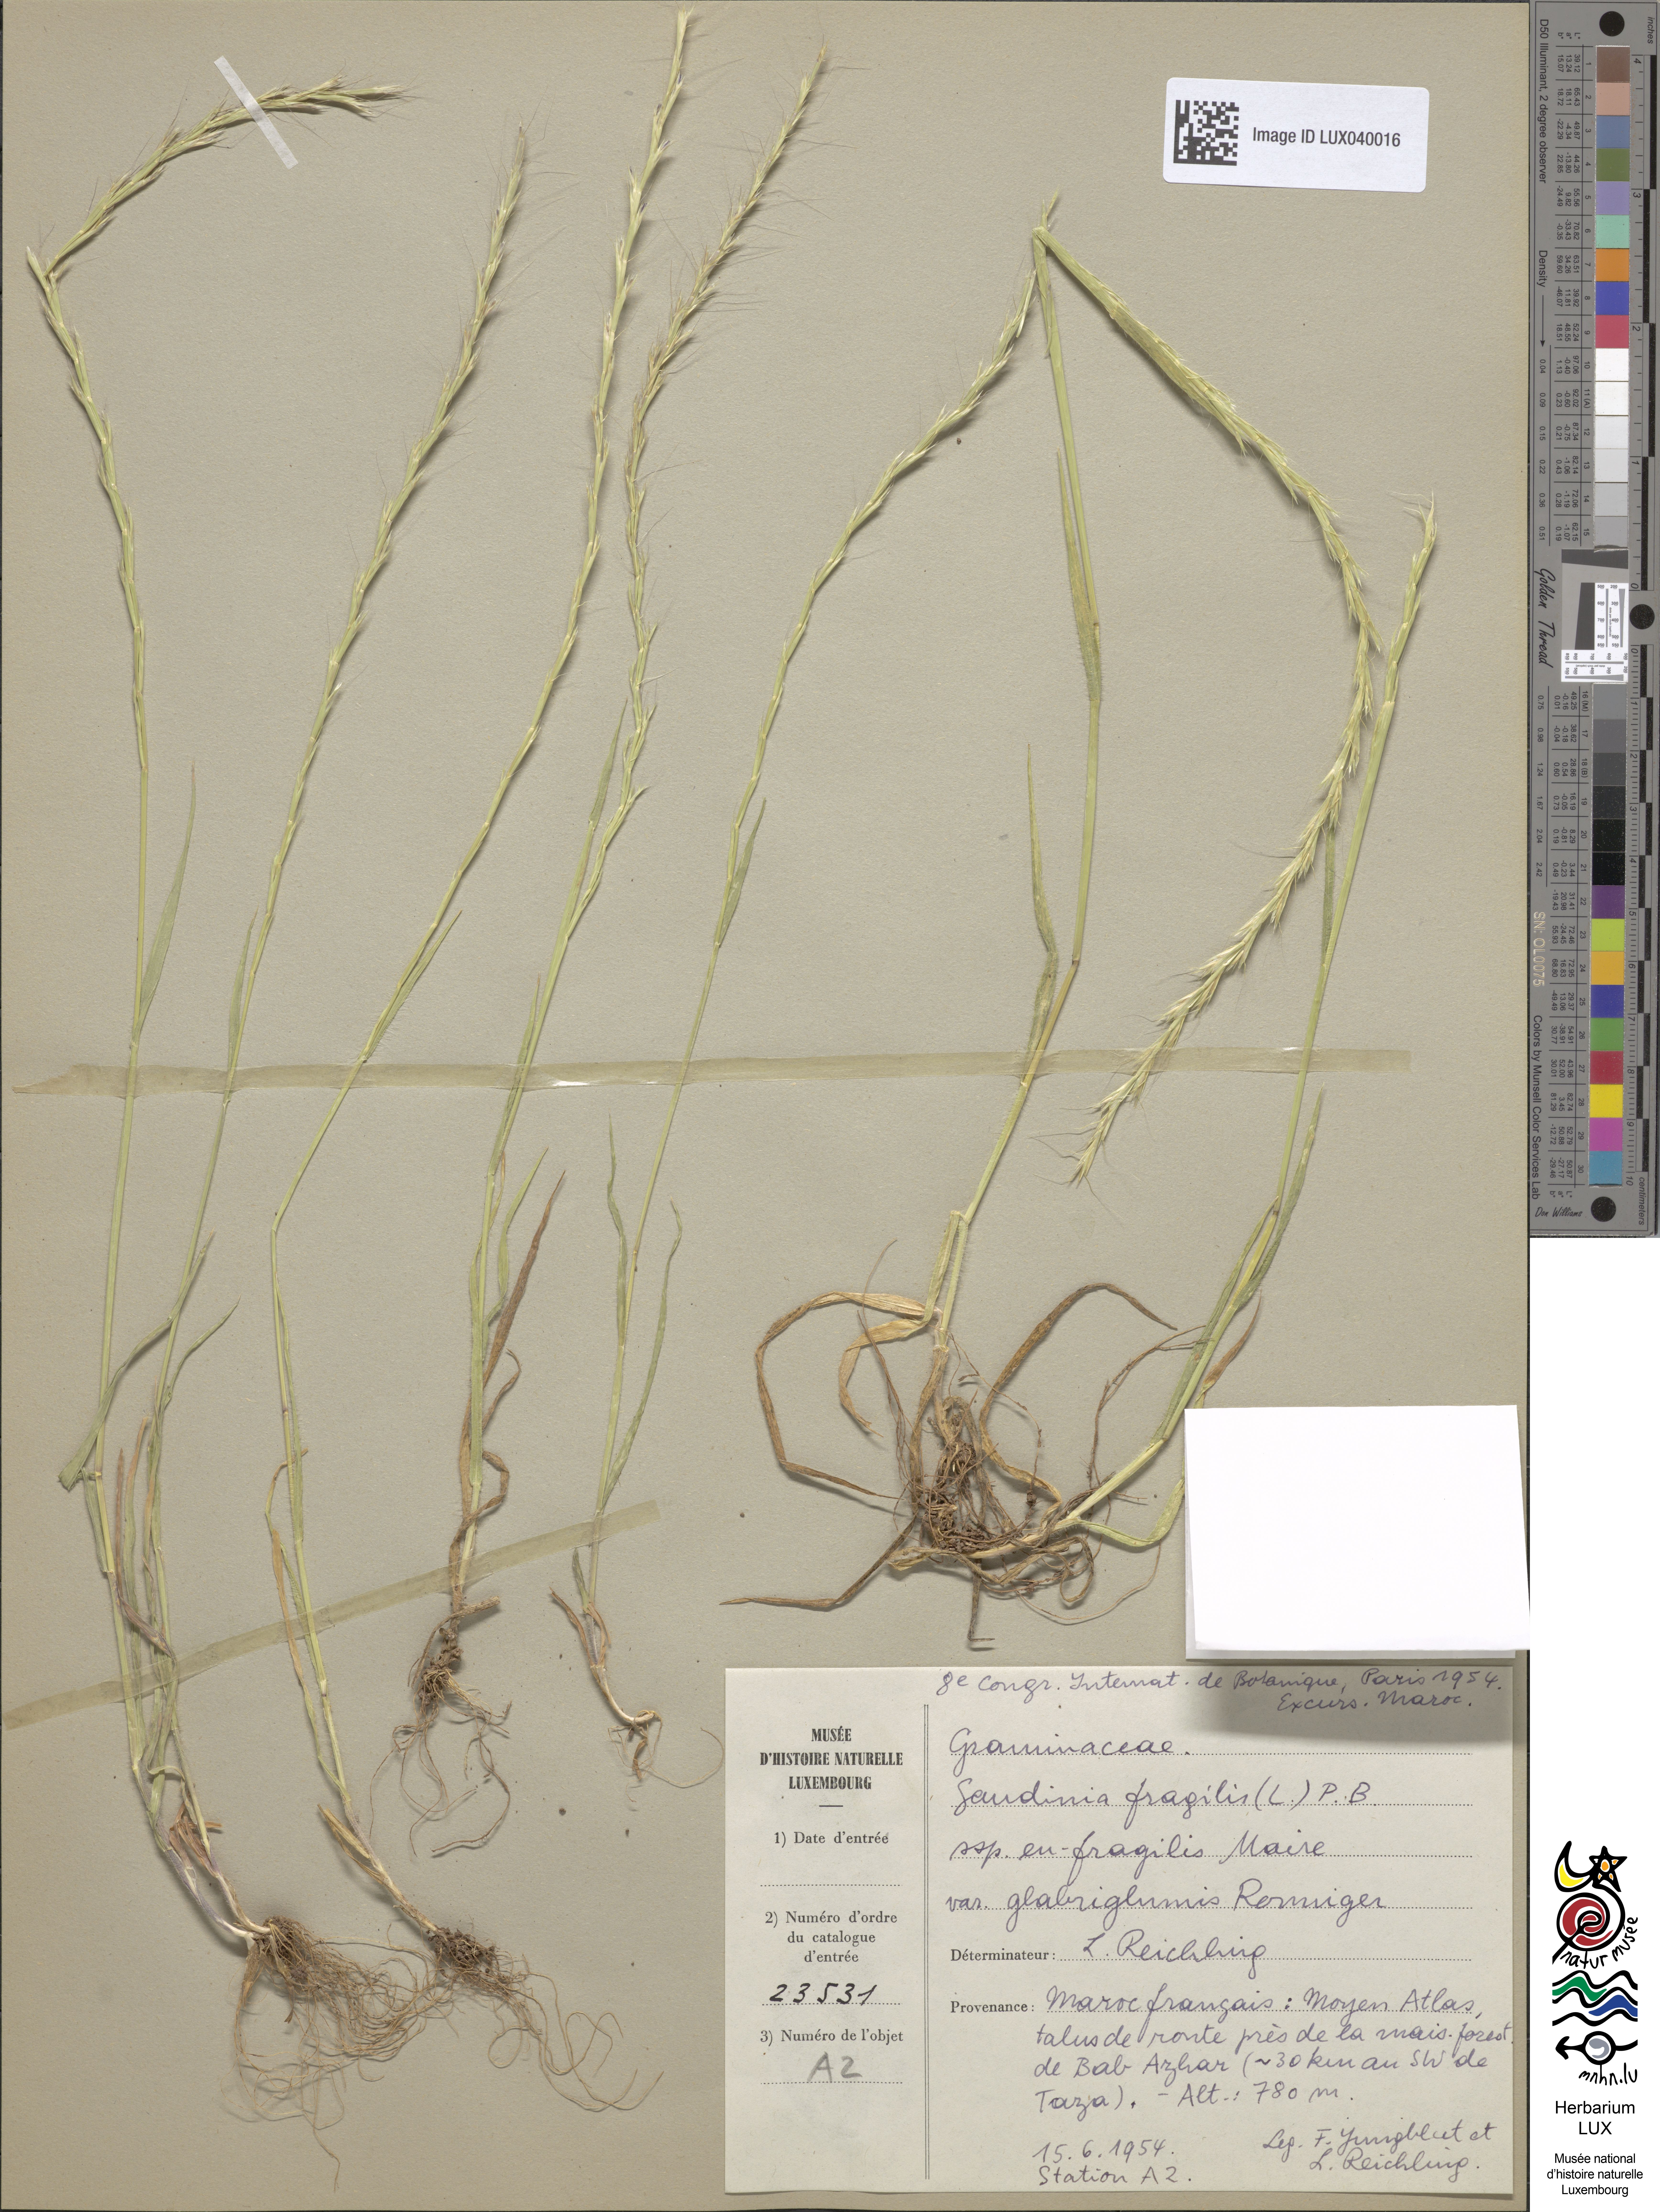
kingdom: Plantae
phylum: Tracheophyta
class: Liliopsida
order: Poales
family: Poaceae
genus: Gaudinia
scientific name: Gaudinia fragilis
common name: French oat-grass
